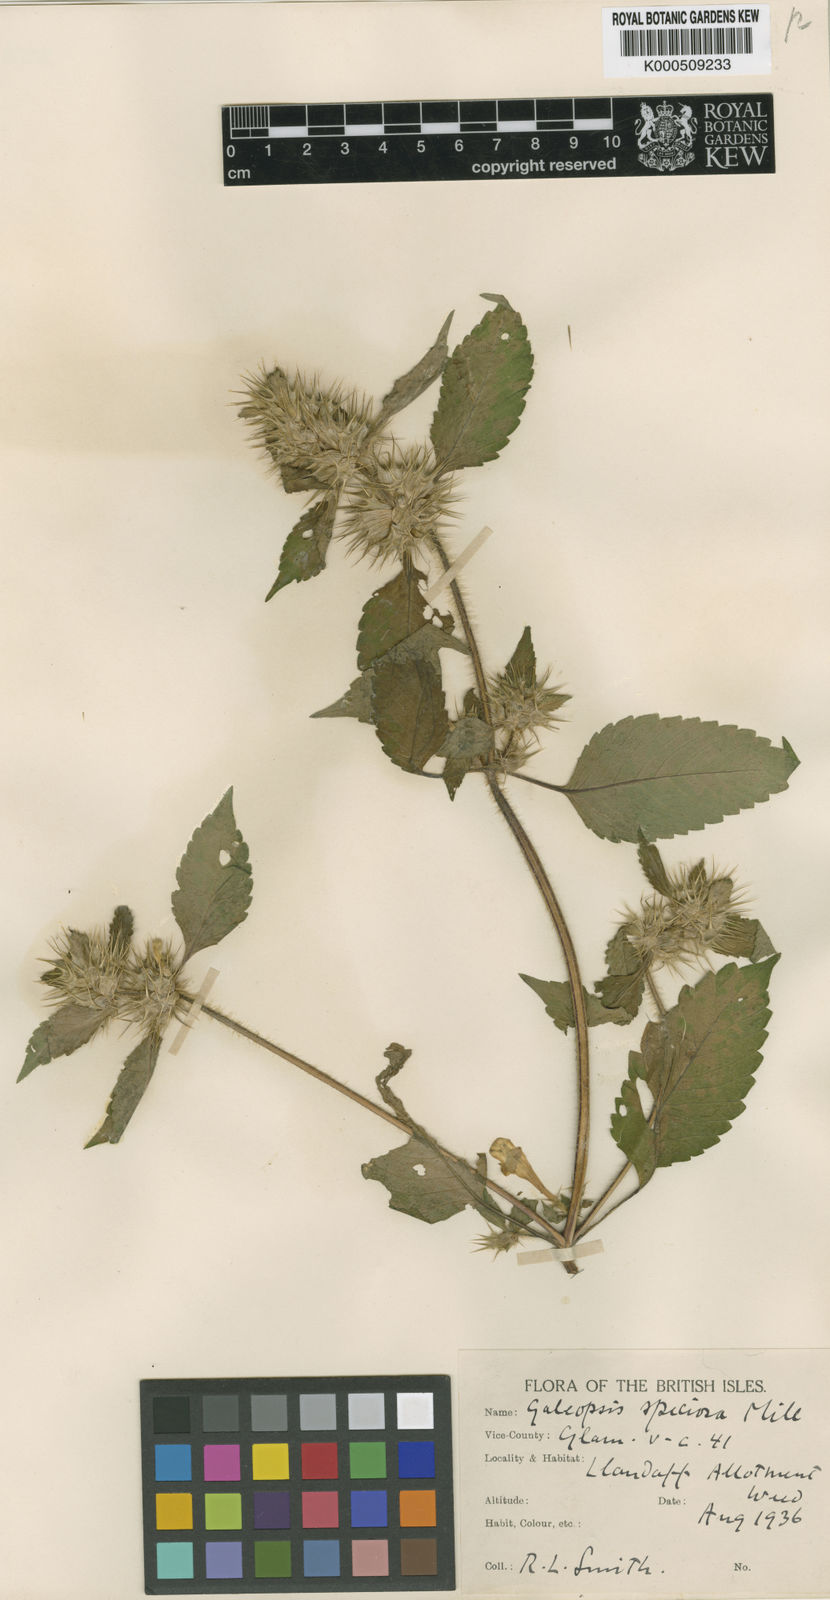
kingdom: Plantae
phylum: Tracheophyta
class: Magnoliopsida
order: Lamiales
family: Lamiaceae
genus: Galeopsis
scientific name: Galeopsis speciosa
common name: Large-flowered hemp-nettle
